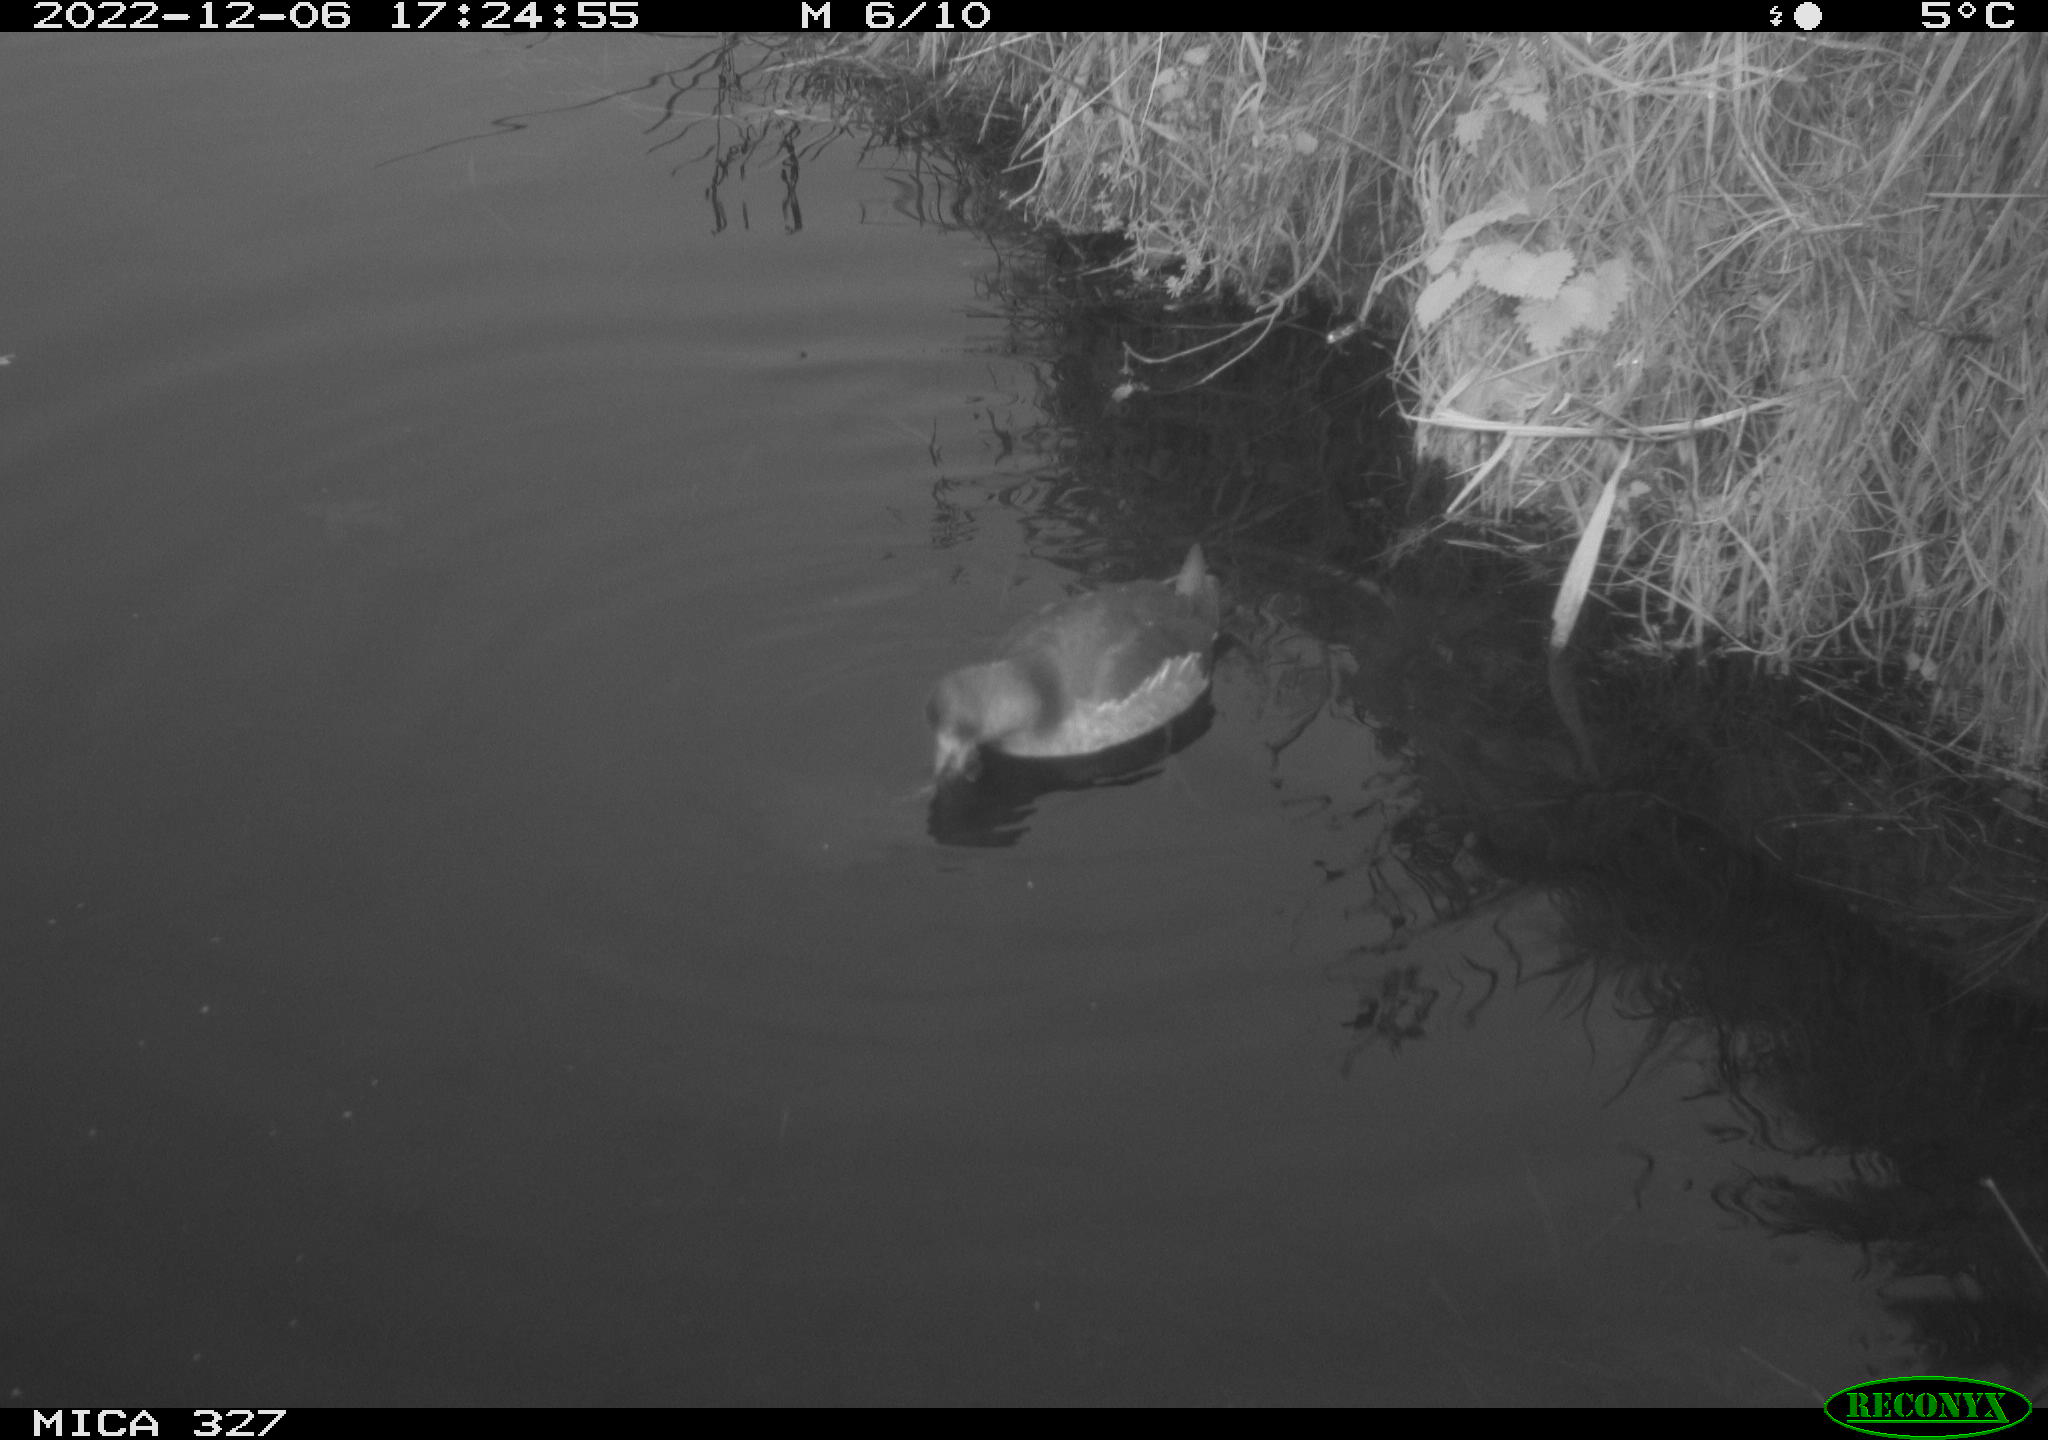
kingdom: Animalia
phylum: Chordata
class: Aves
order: Gruiformes
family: Rallidae
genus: Gallinula
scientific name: Gallinula chloropus
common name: Common moorhen
